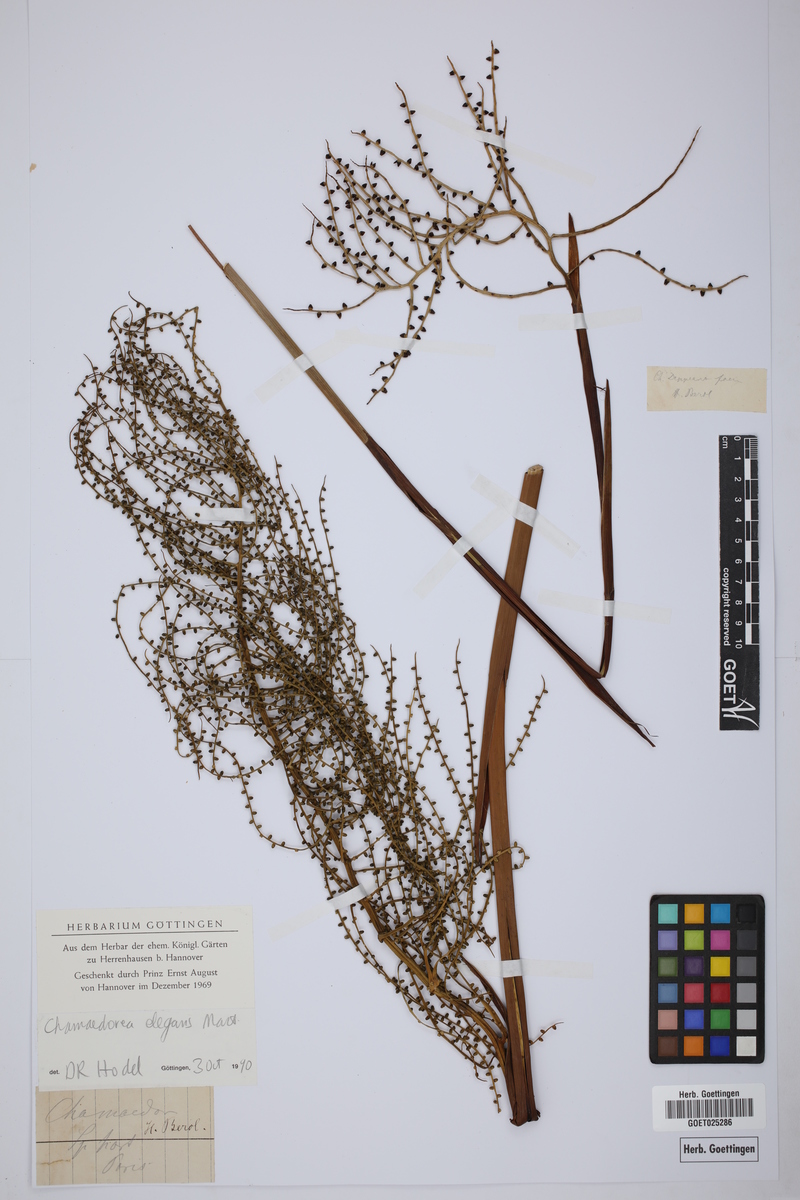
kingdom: Plantae
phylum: Tracheophyta
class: Liliopsida
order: Arecales
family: Arecaceae
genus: Chamaedorea
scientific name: Chamaedorea elegans
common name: Good-luck palm
